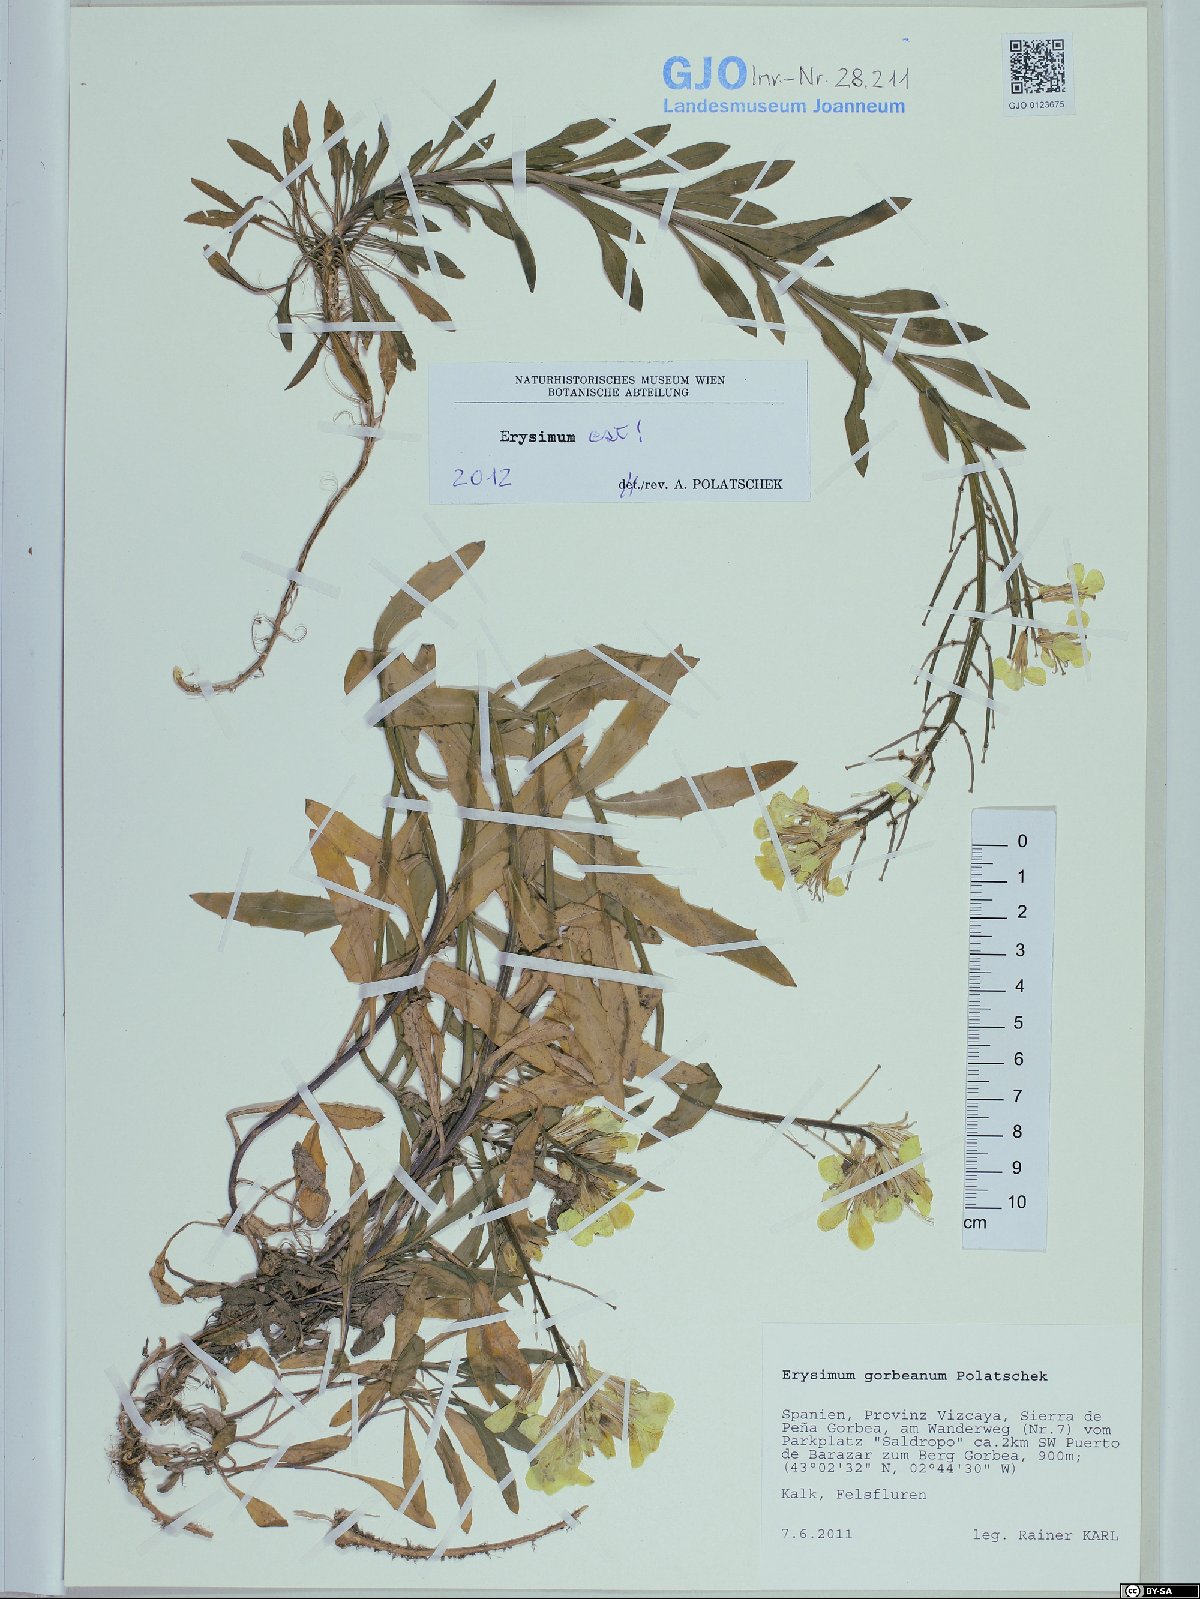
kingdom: Plantae
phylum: Tracheophyta
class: Magnoliopsida
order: Brassicales
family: Brassicaceae
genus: Erysimum
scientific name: Erysimum duriaei
